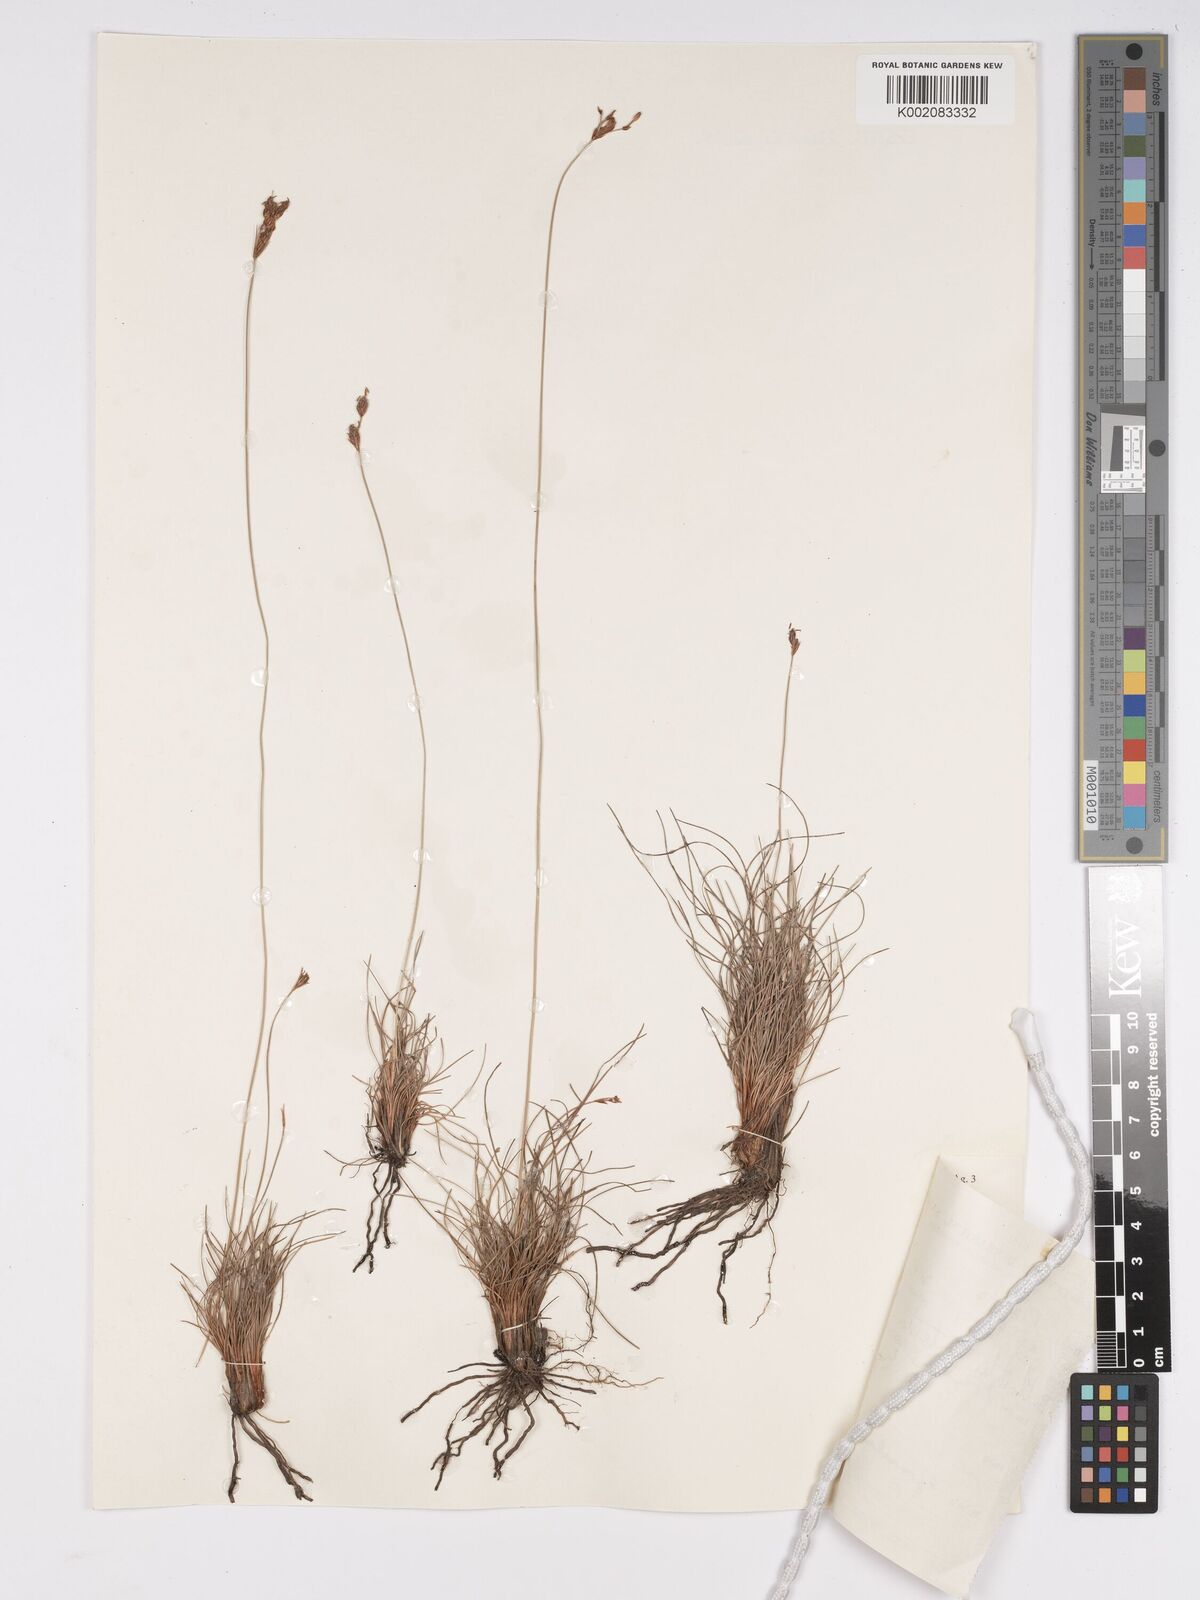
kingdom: Plantae
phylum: Tracheophyta
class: Liliopsida
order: Poales
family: Cyperaceae
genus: Bulbostylis
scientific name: Bulbostylis schoenoides
